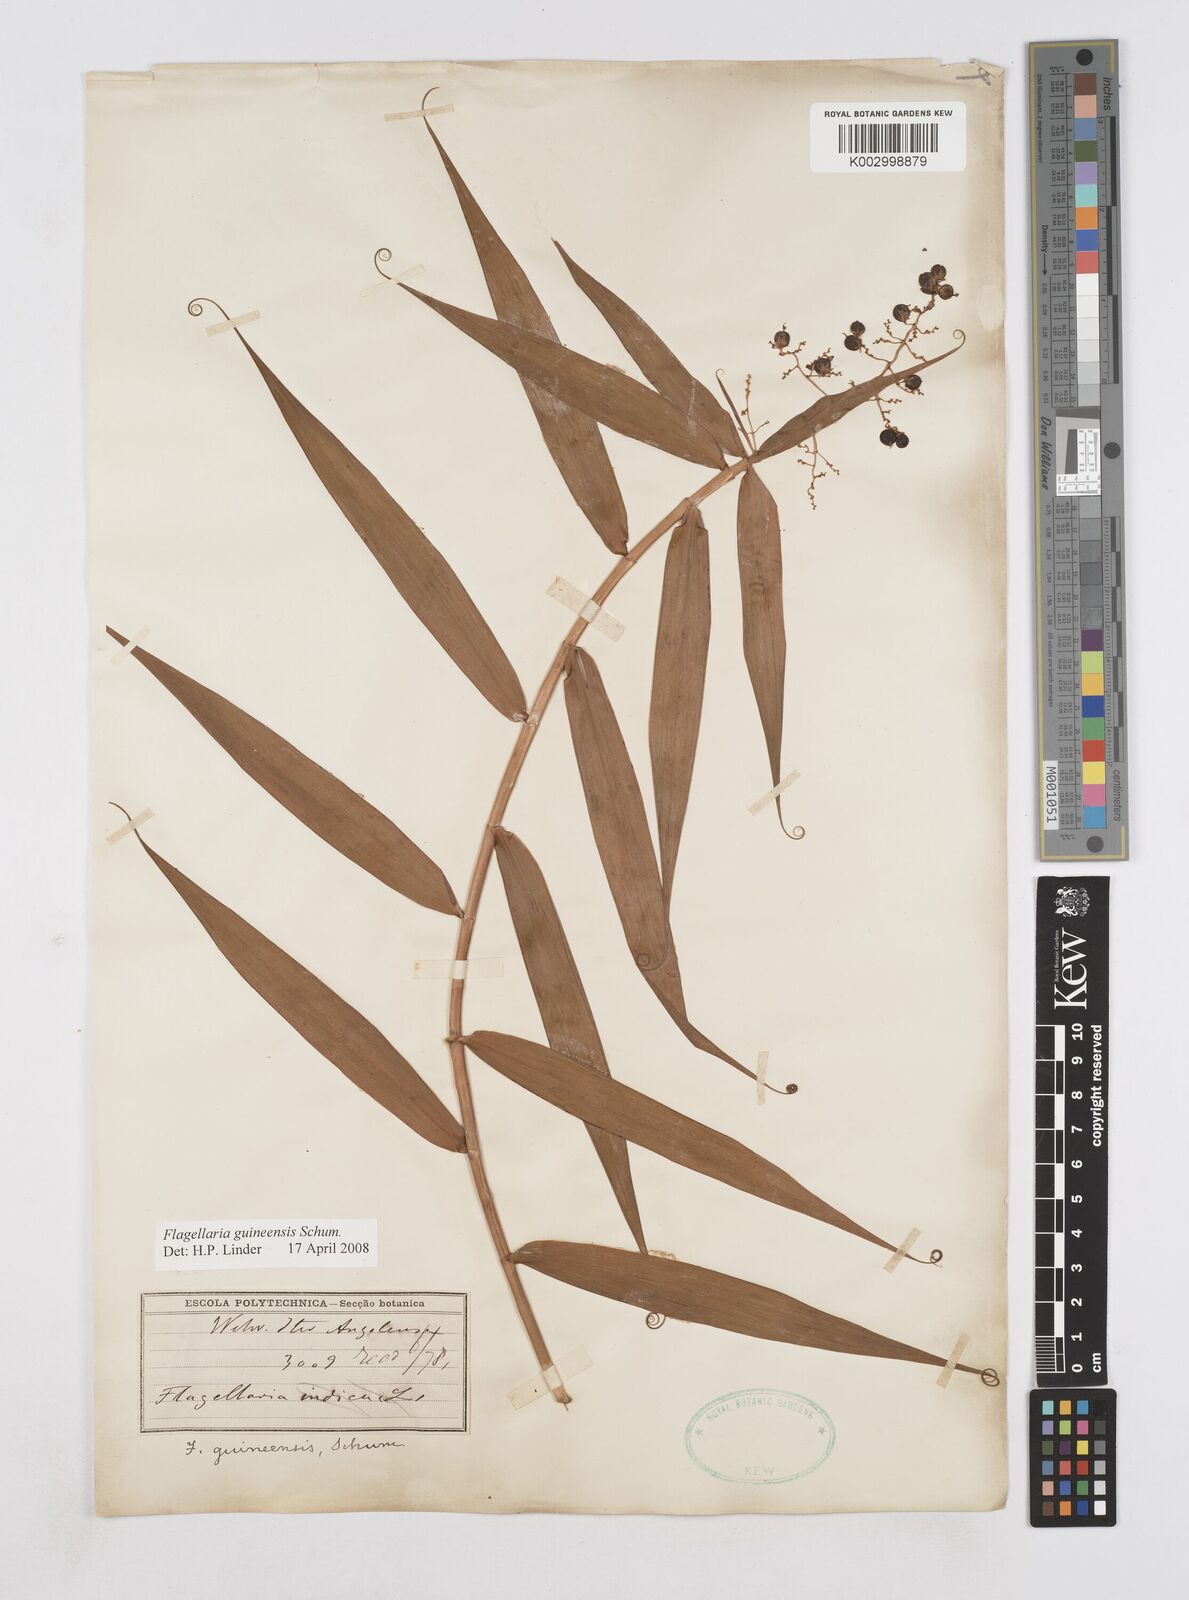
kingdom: Plantae
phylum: Tracheophyta
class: Liliopsida
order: Poales
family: Flagellariaceae
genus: Flagellaria
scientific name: Flagellaria guineensis
